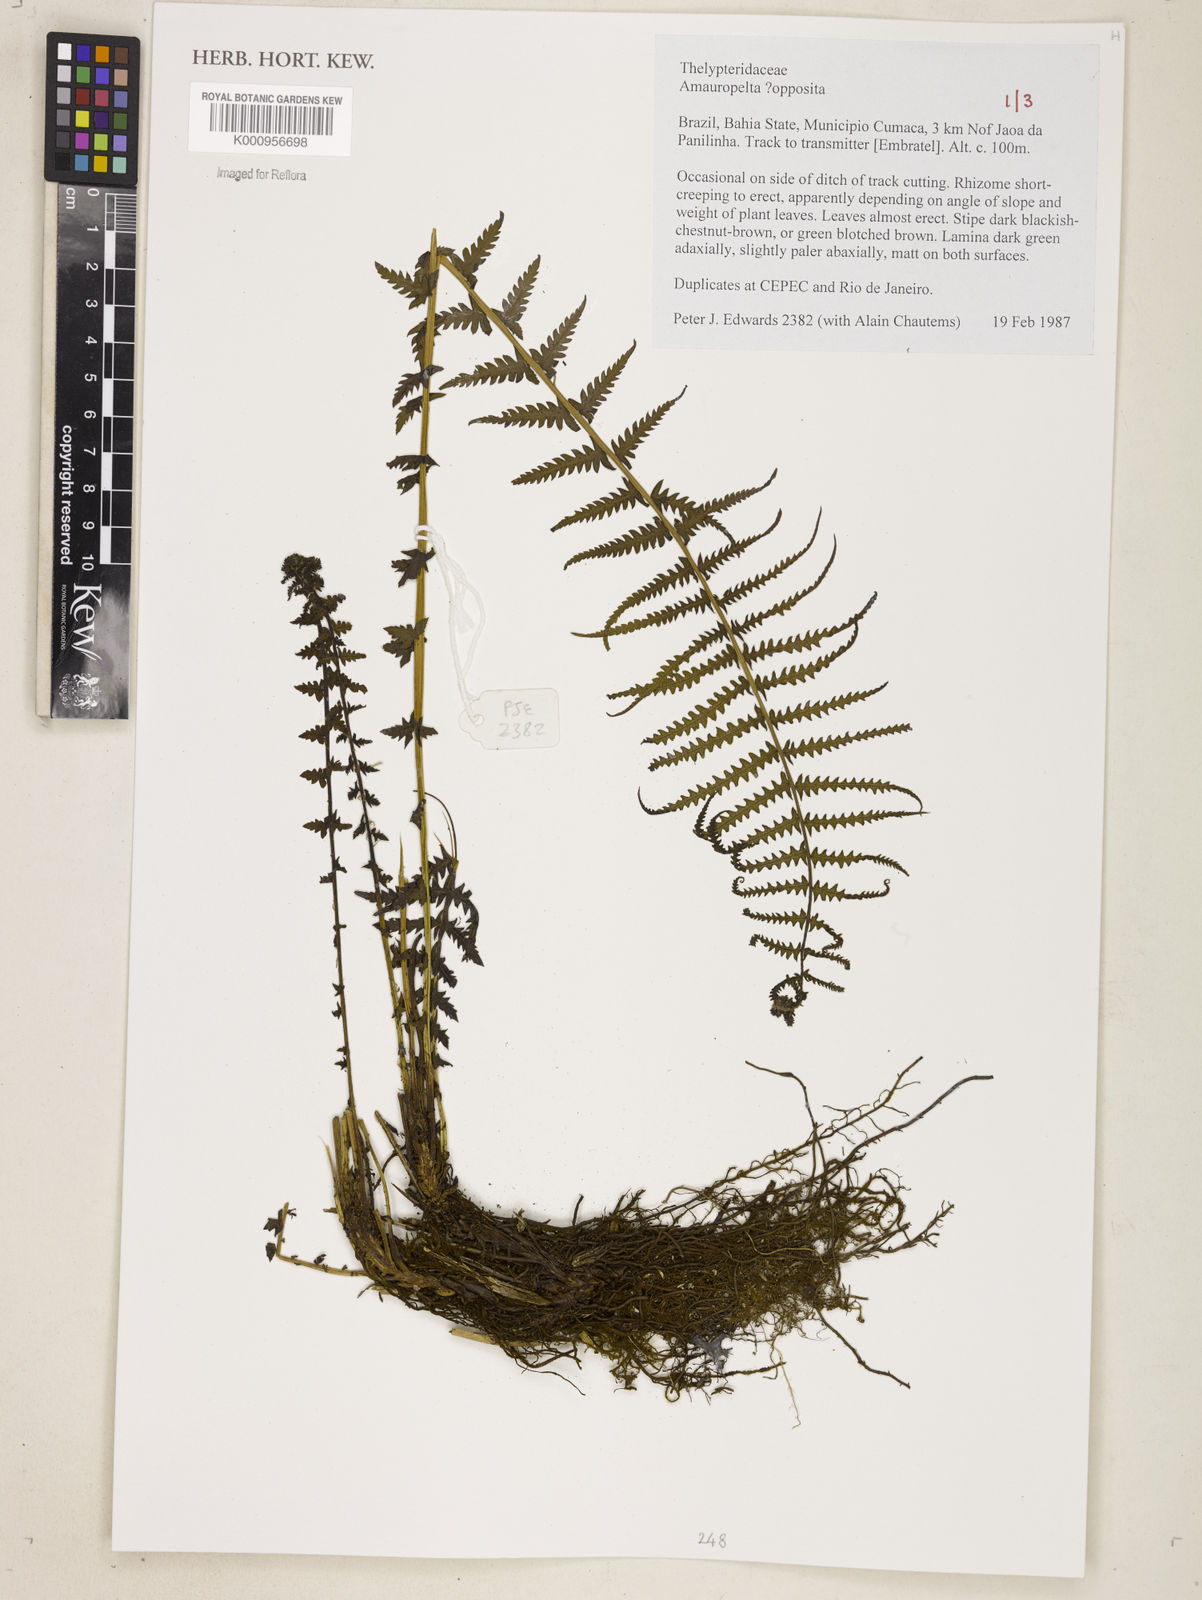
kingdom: Plantae
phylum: Tracheophyta
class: Polypodiopsida
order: Polypodiales
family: Thelypteridaceae
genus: Amauropelta
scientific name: Amauropelta opposita
